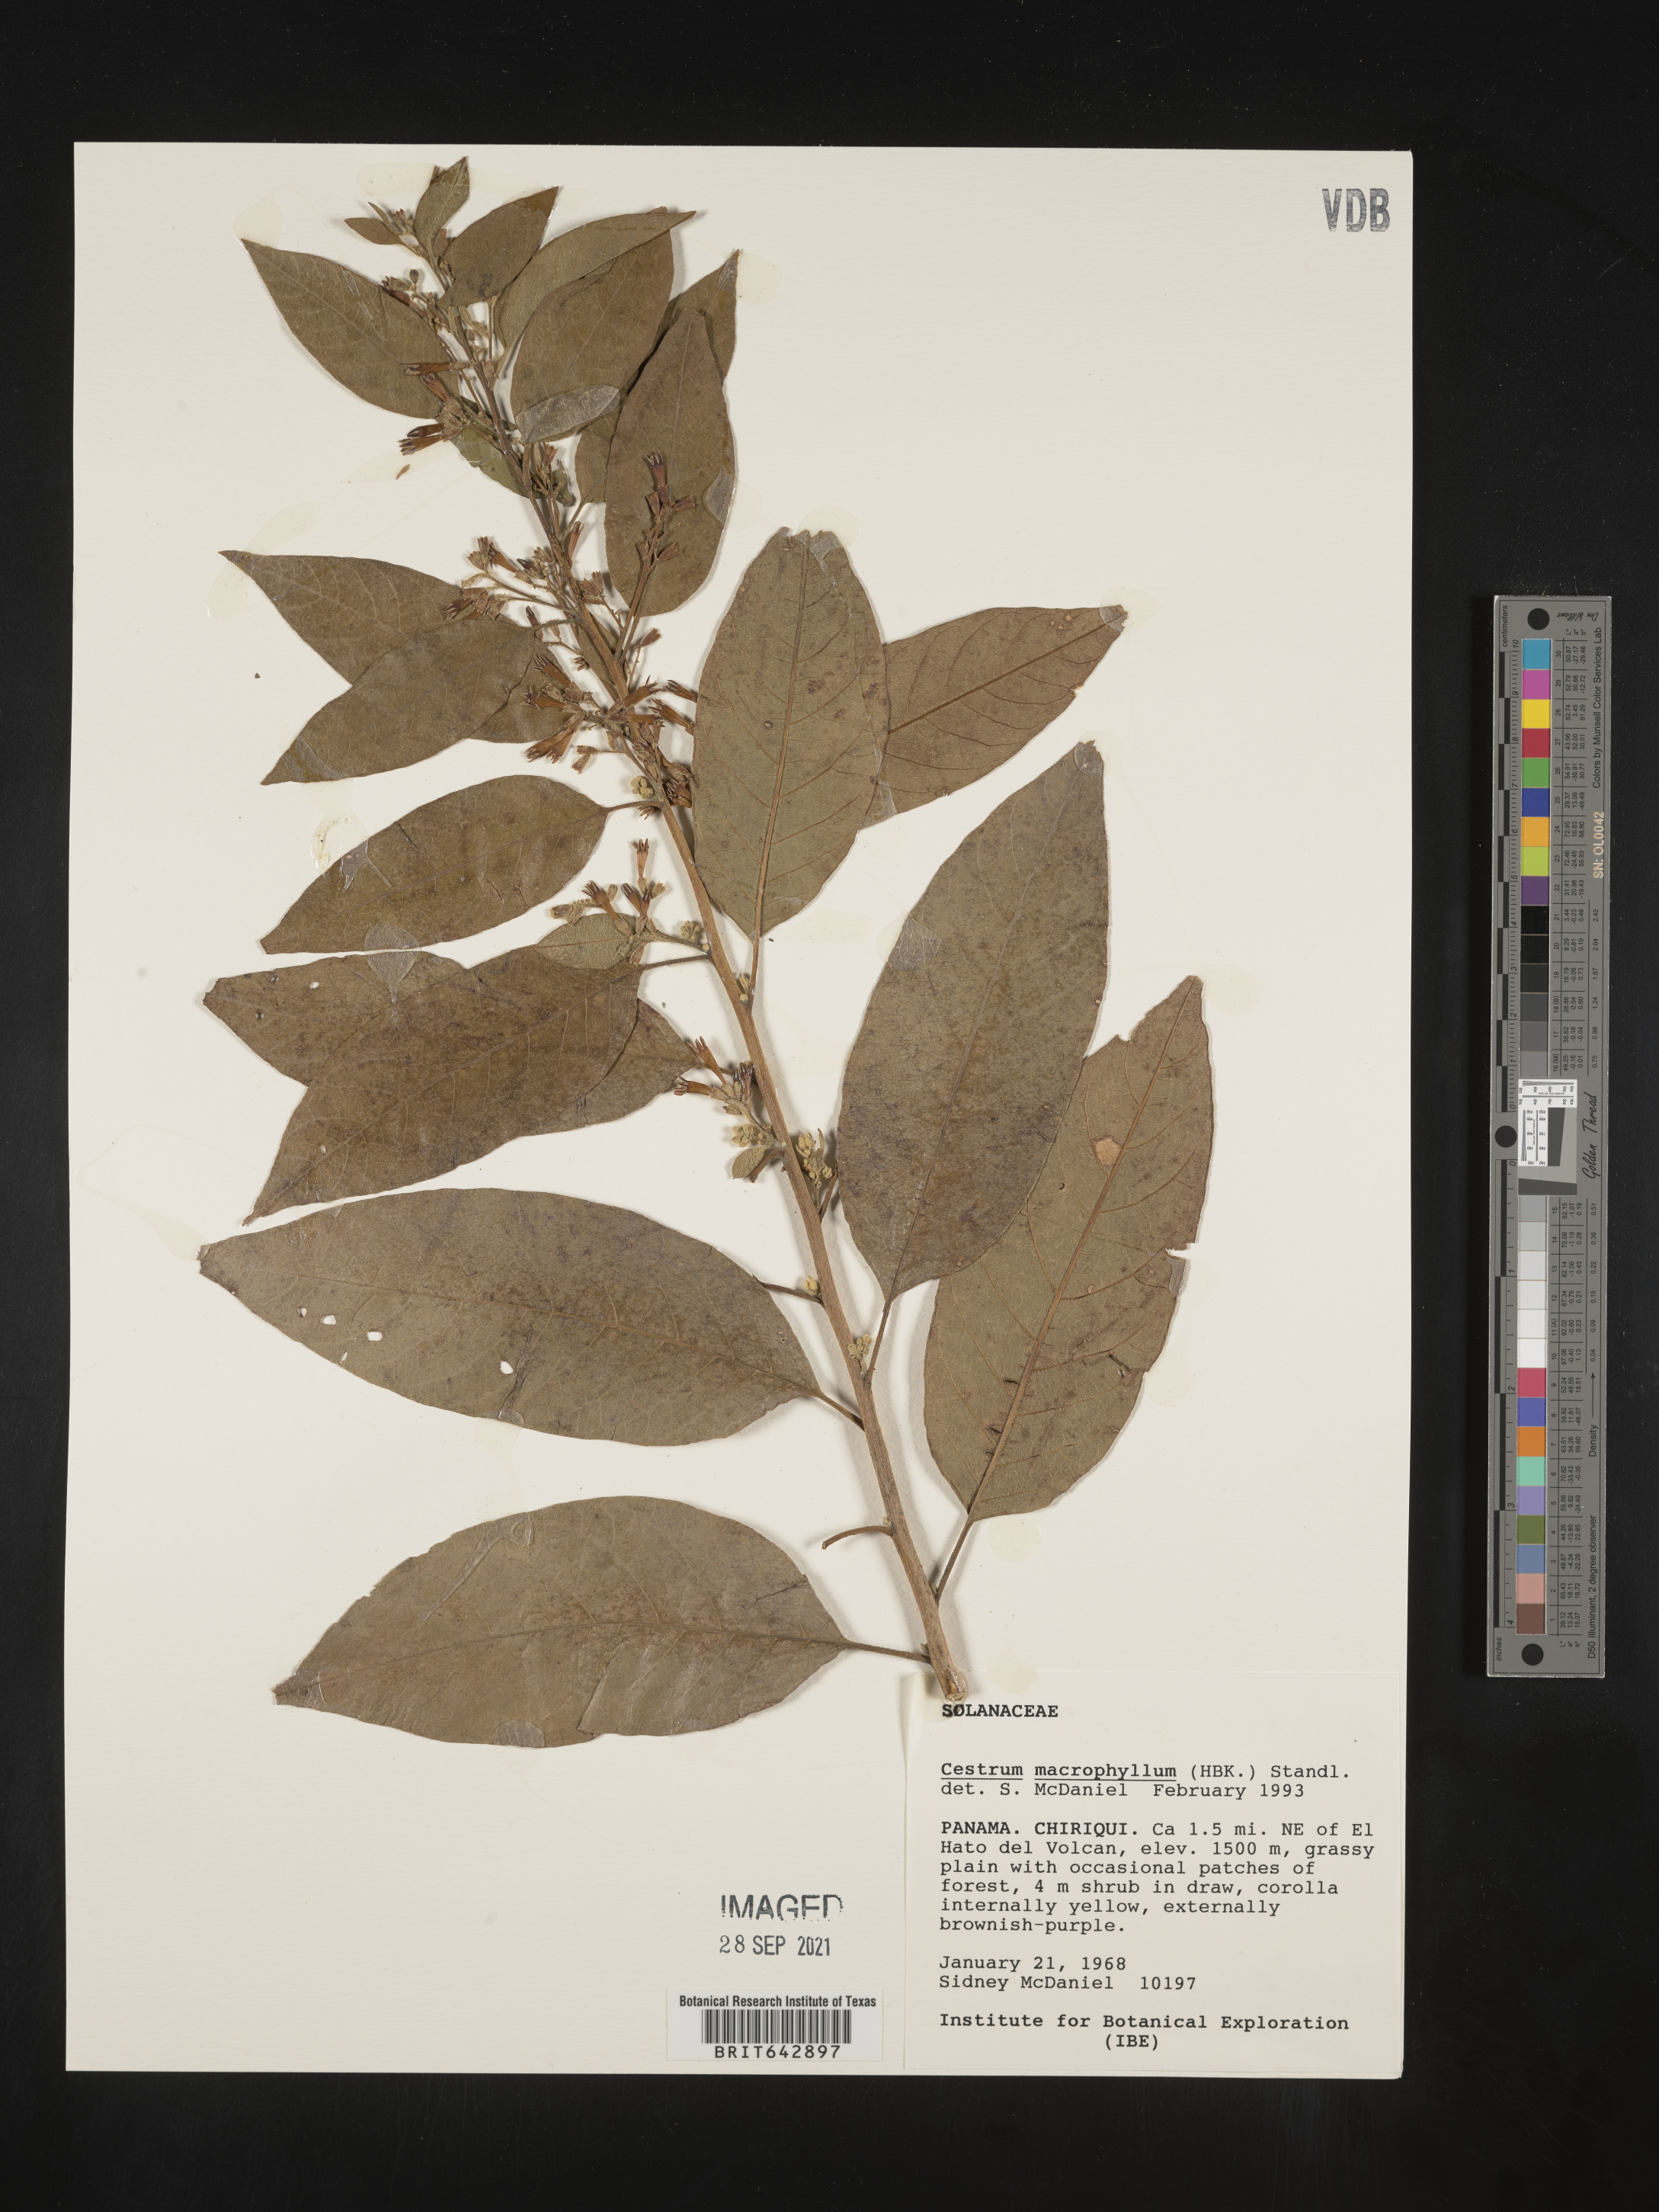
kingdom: Plantae
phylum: Tracheophyta
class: Magnoliopsida
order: Solanales
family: Solanaceae
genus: Cestrum
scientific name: Cestrum
